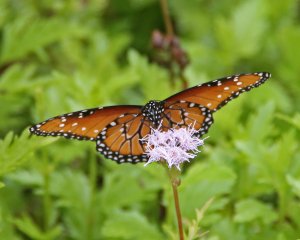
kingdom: Animalia
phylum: Arthropoda
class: Insecta
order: Lepidoptera
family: Nymphalidae
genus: Danaus
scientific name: Danaus gilippus
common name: Queen
